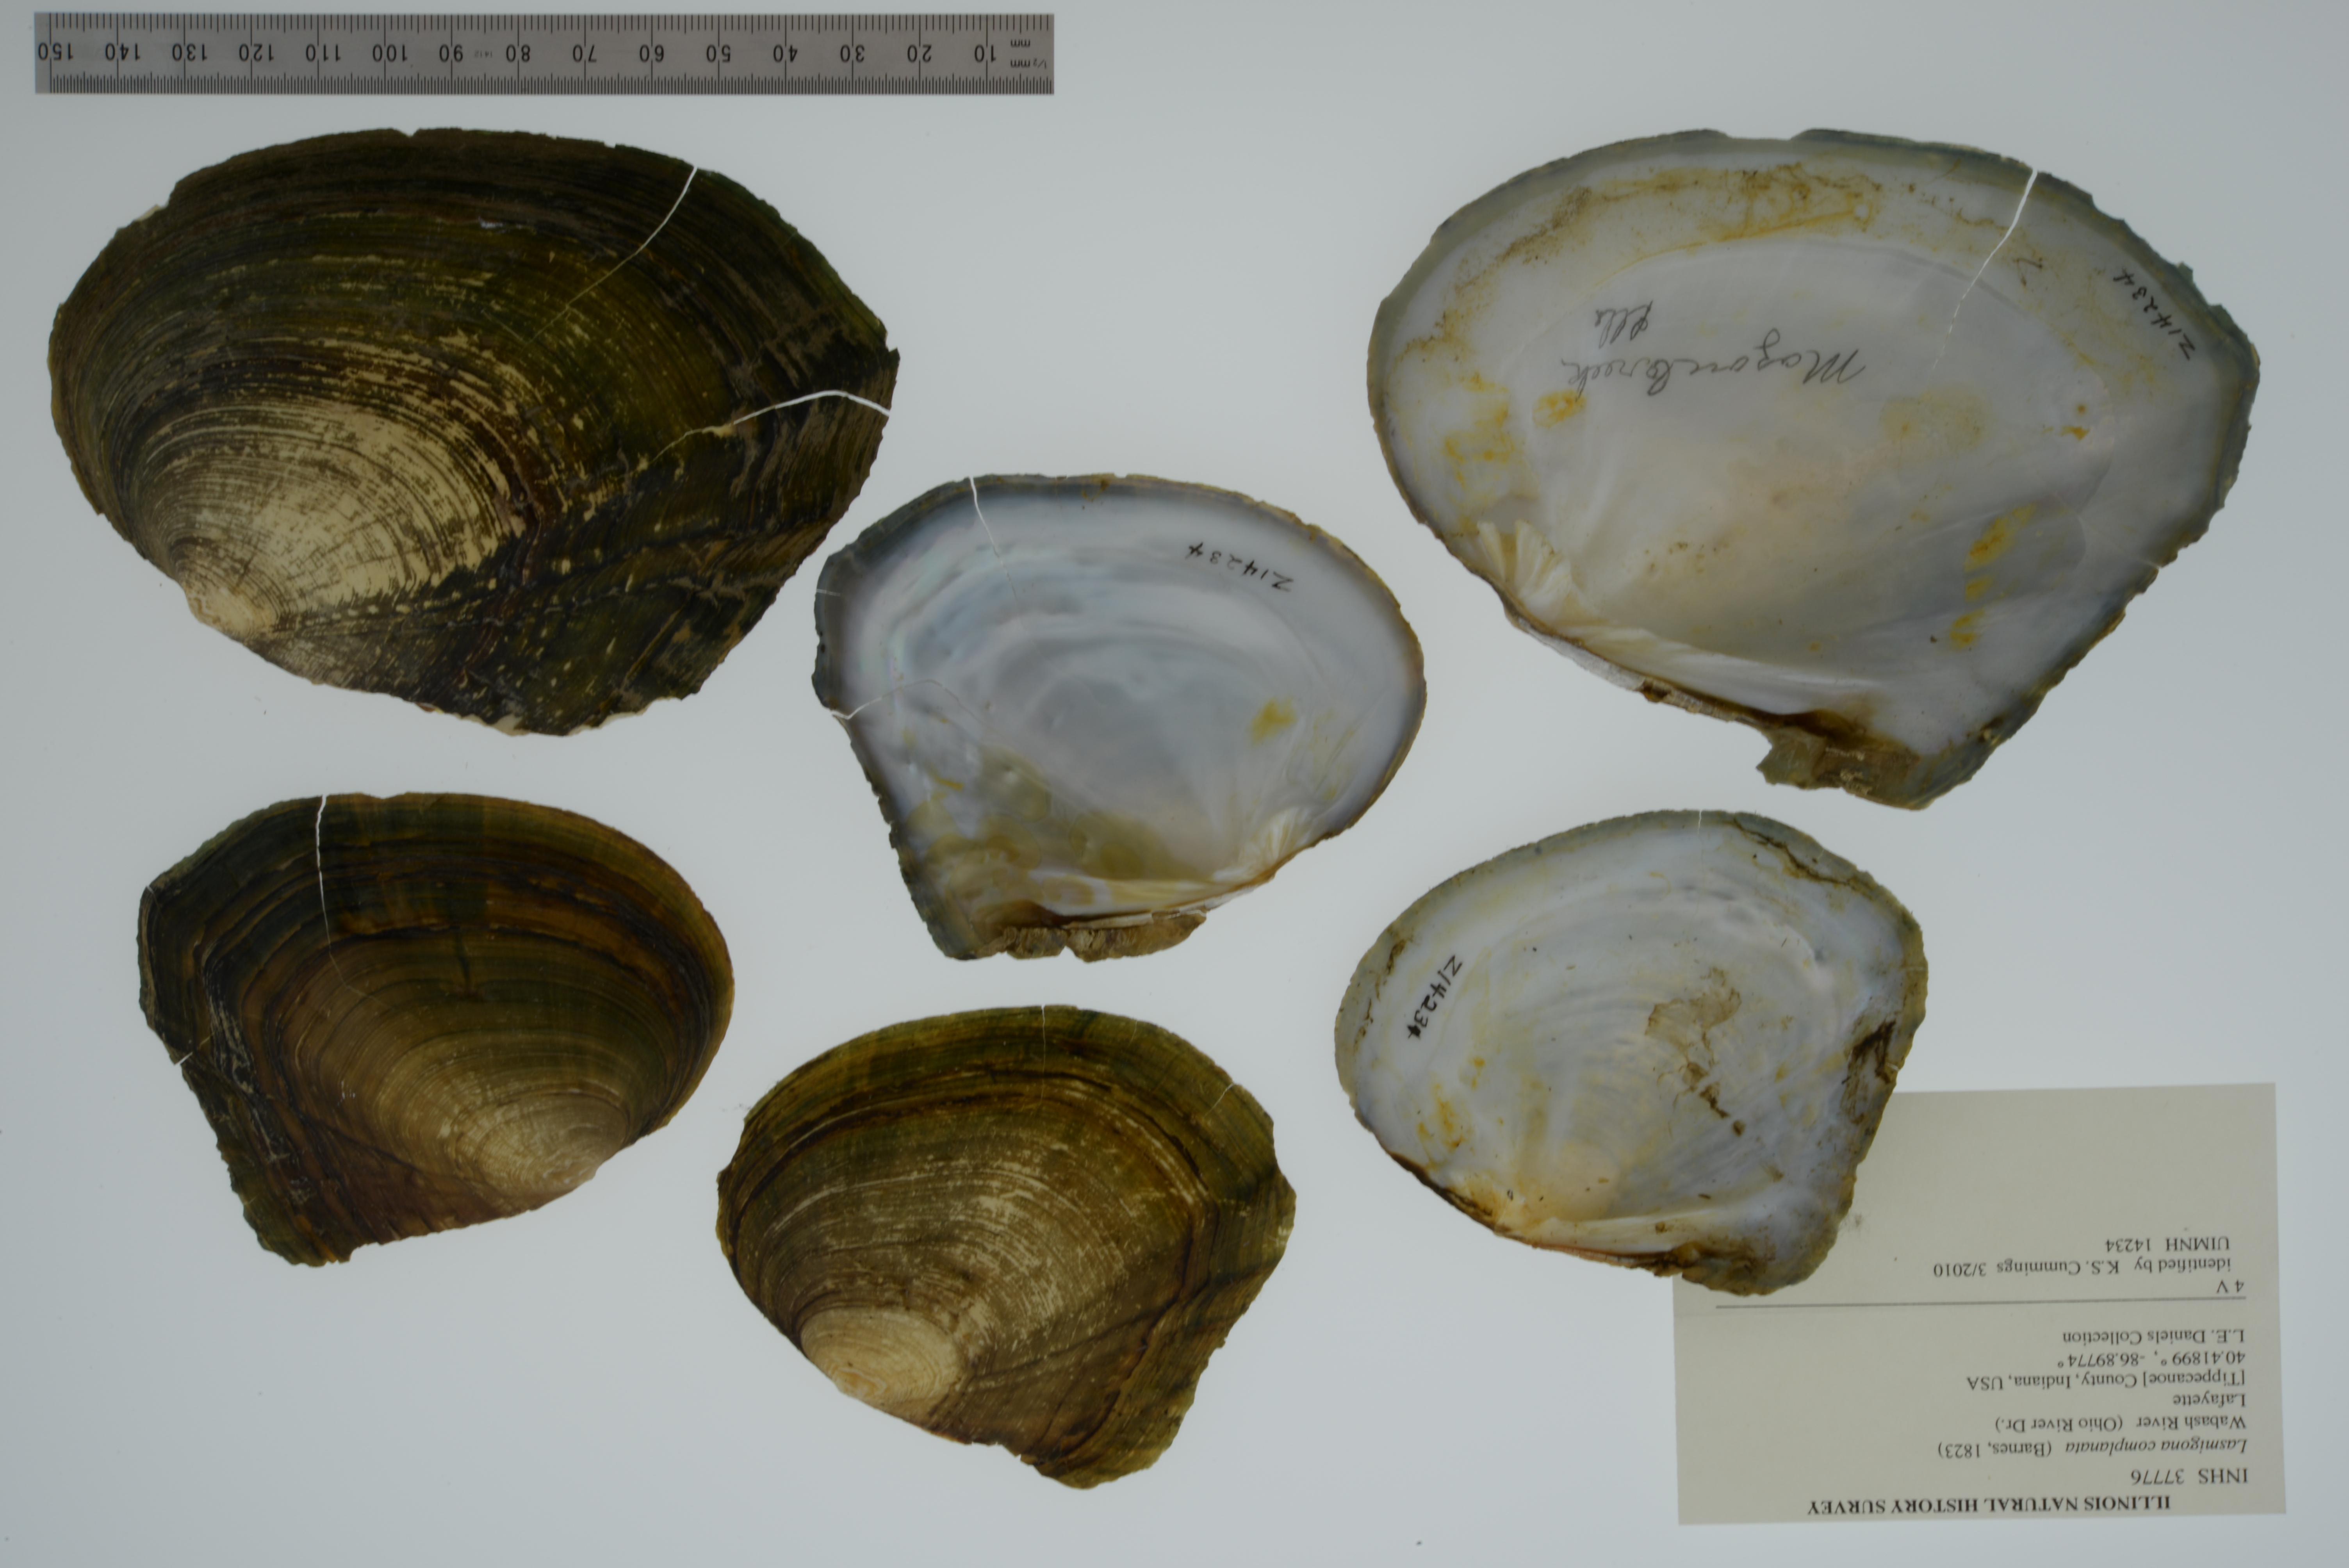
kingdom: Animalia
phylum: Mollusca
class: Bivalvia
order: Unionida
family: Unionidae
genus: Lasmigona
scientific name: Lasmigona complanata
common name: White heelsplitter
